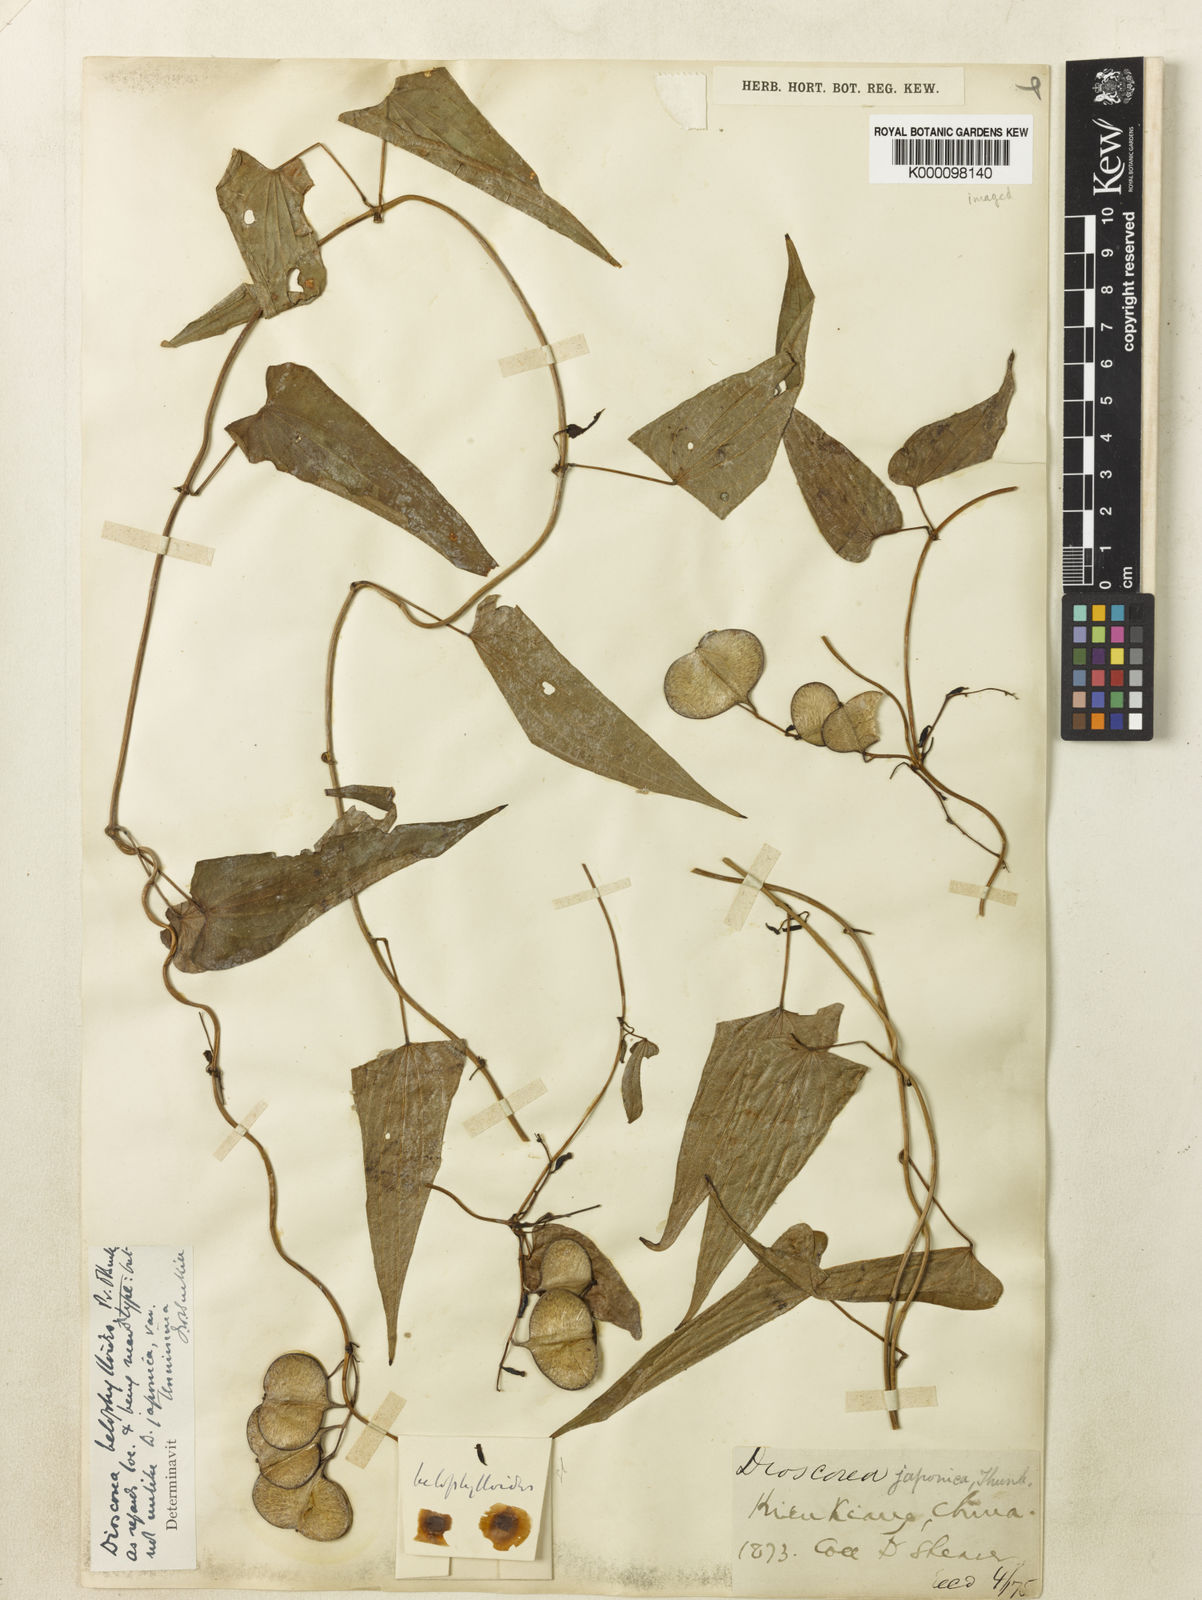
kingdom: Plantae
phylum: Tracheophyta
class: Liliopsida
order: Dioscoreales
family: Dioscoreaceae
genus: Dioscorea
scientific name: Dioscorea japonica
